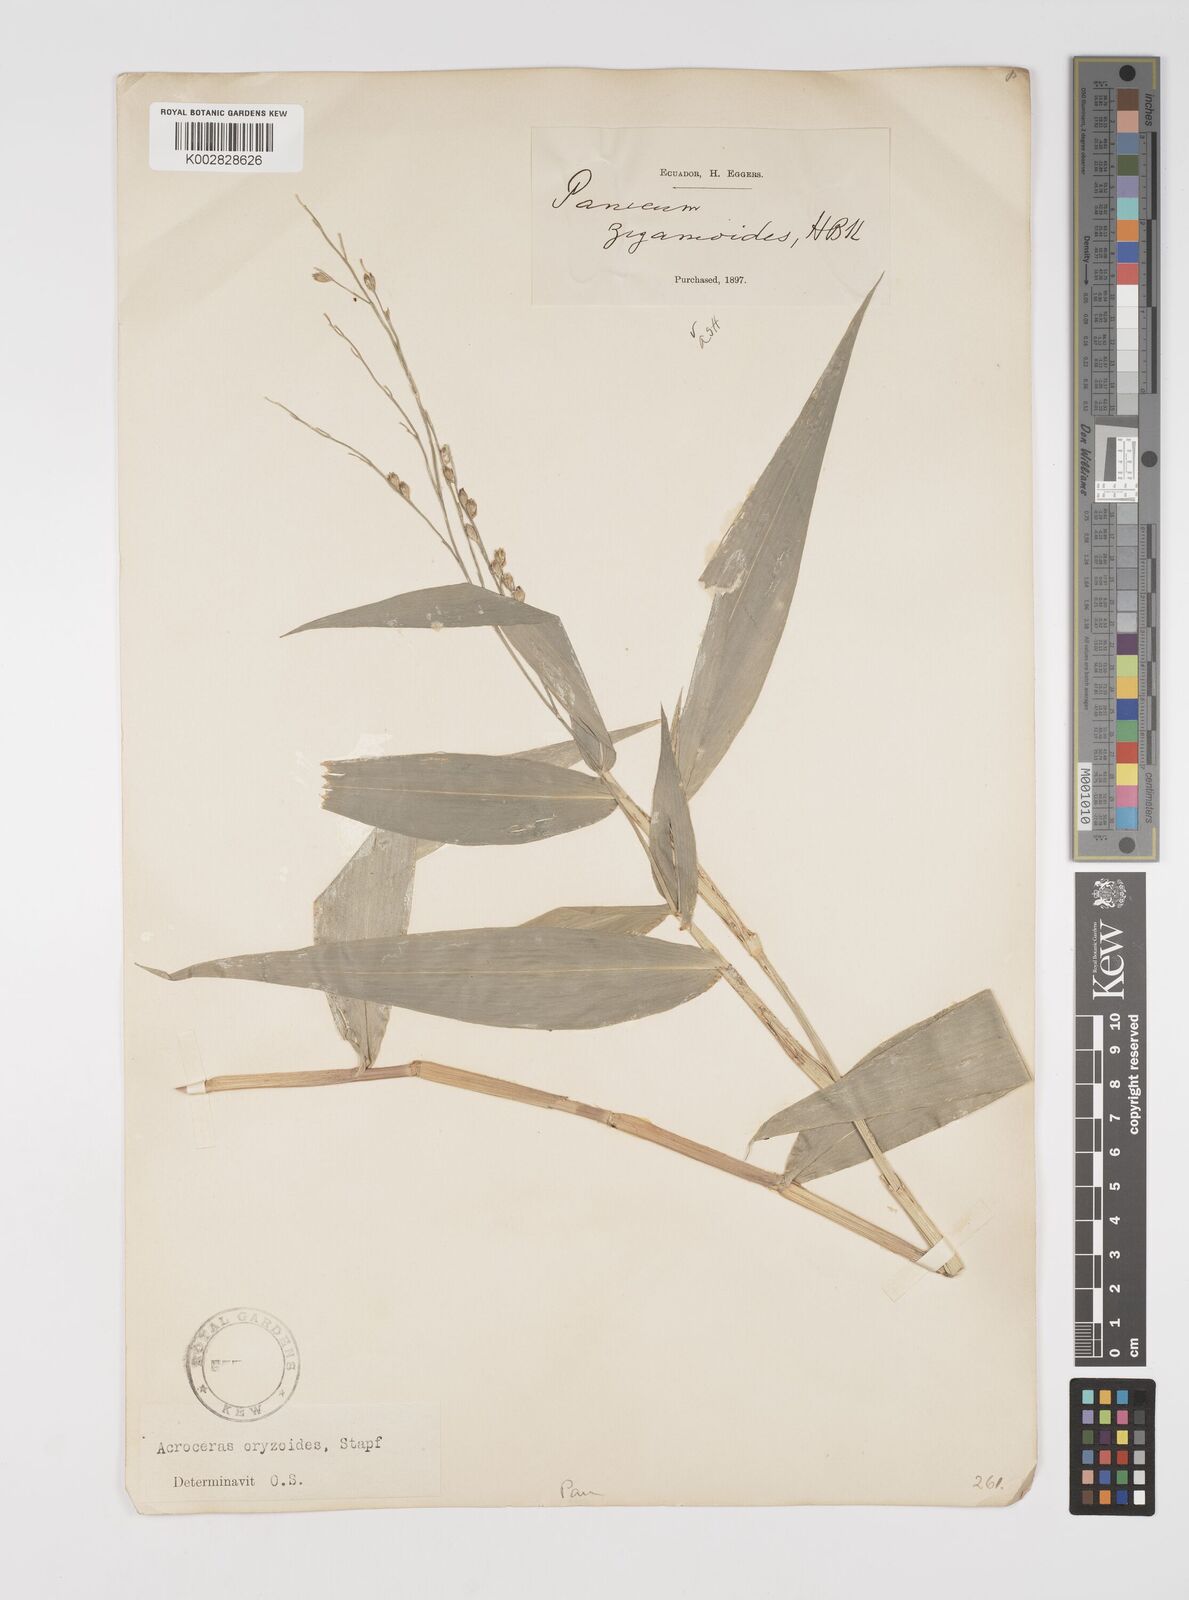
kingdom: Plantae
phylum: Tracheophyta
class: Liliopsida
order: Poales
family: Poaceae
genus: Acroceras
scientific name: Acroceras zizanioides
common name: Oat grass
